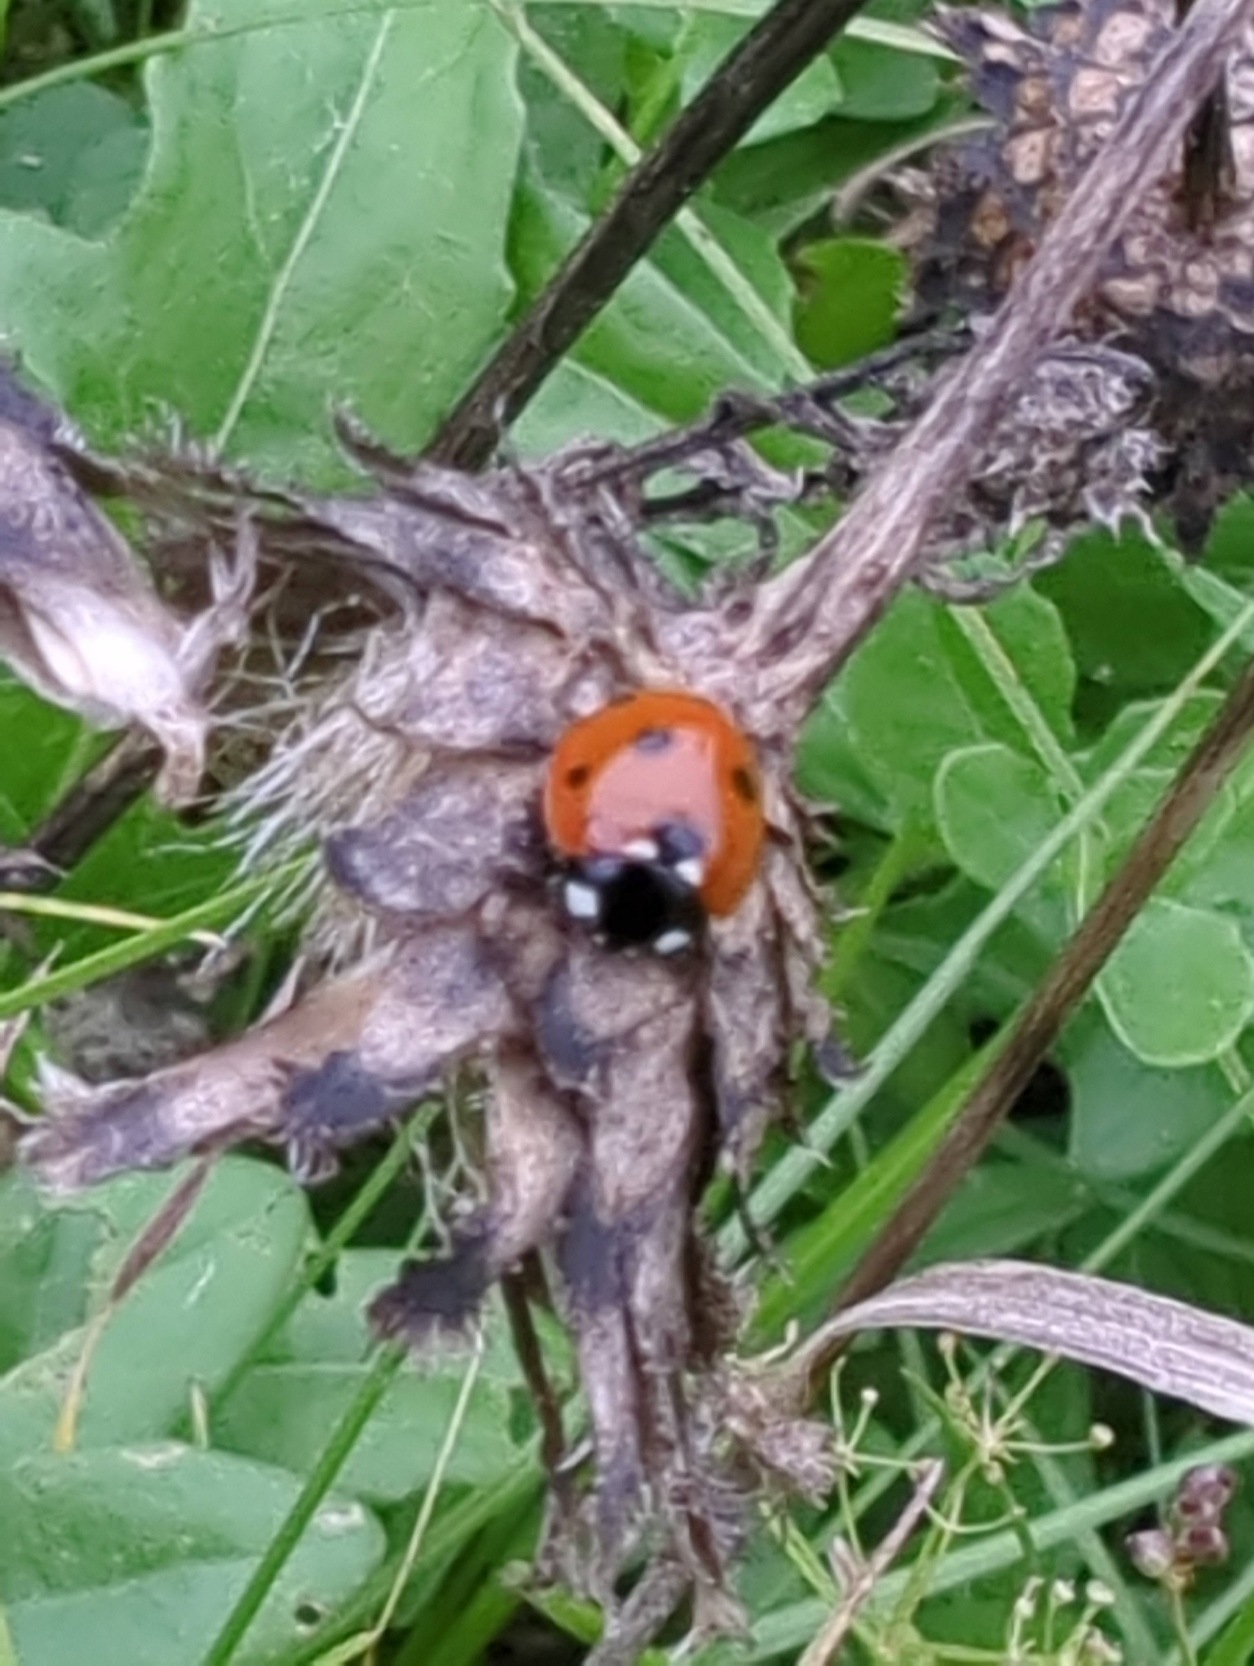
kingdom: Animalia
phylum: Arthropoda
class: Insecta
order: Coleoptera
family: Coccinellidae
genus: Coccinella
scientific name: Coccinella septempunctata
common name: Syvplettet mariehøne
